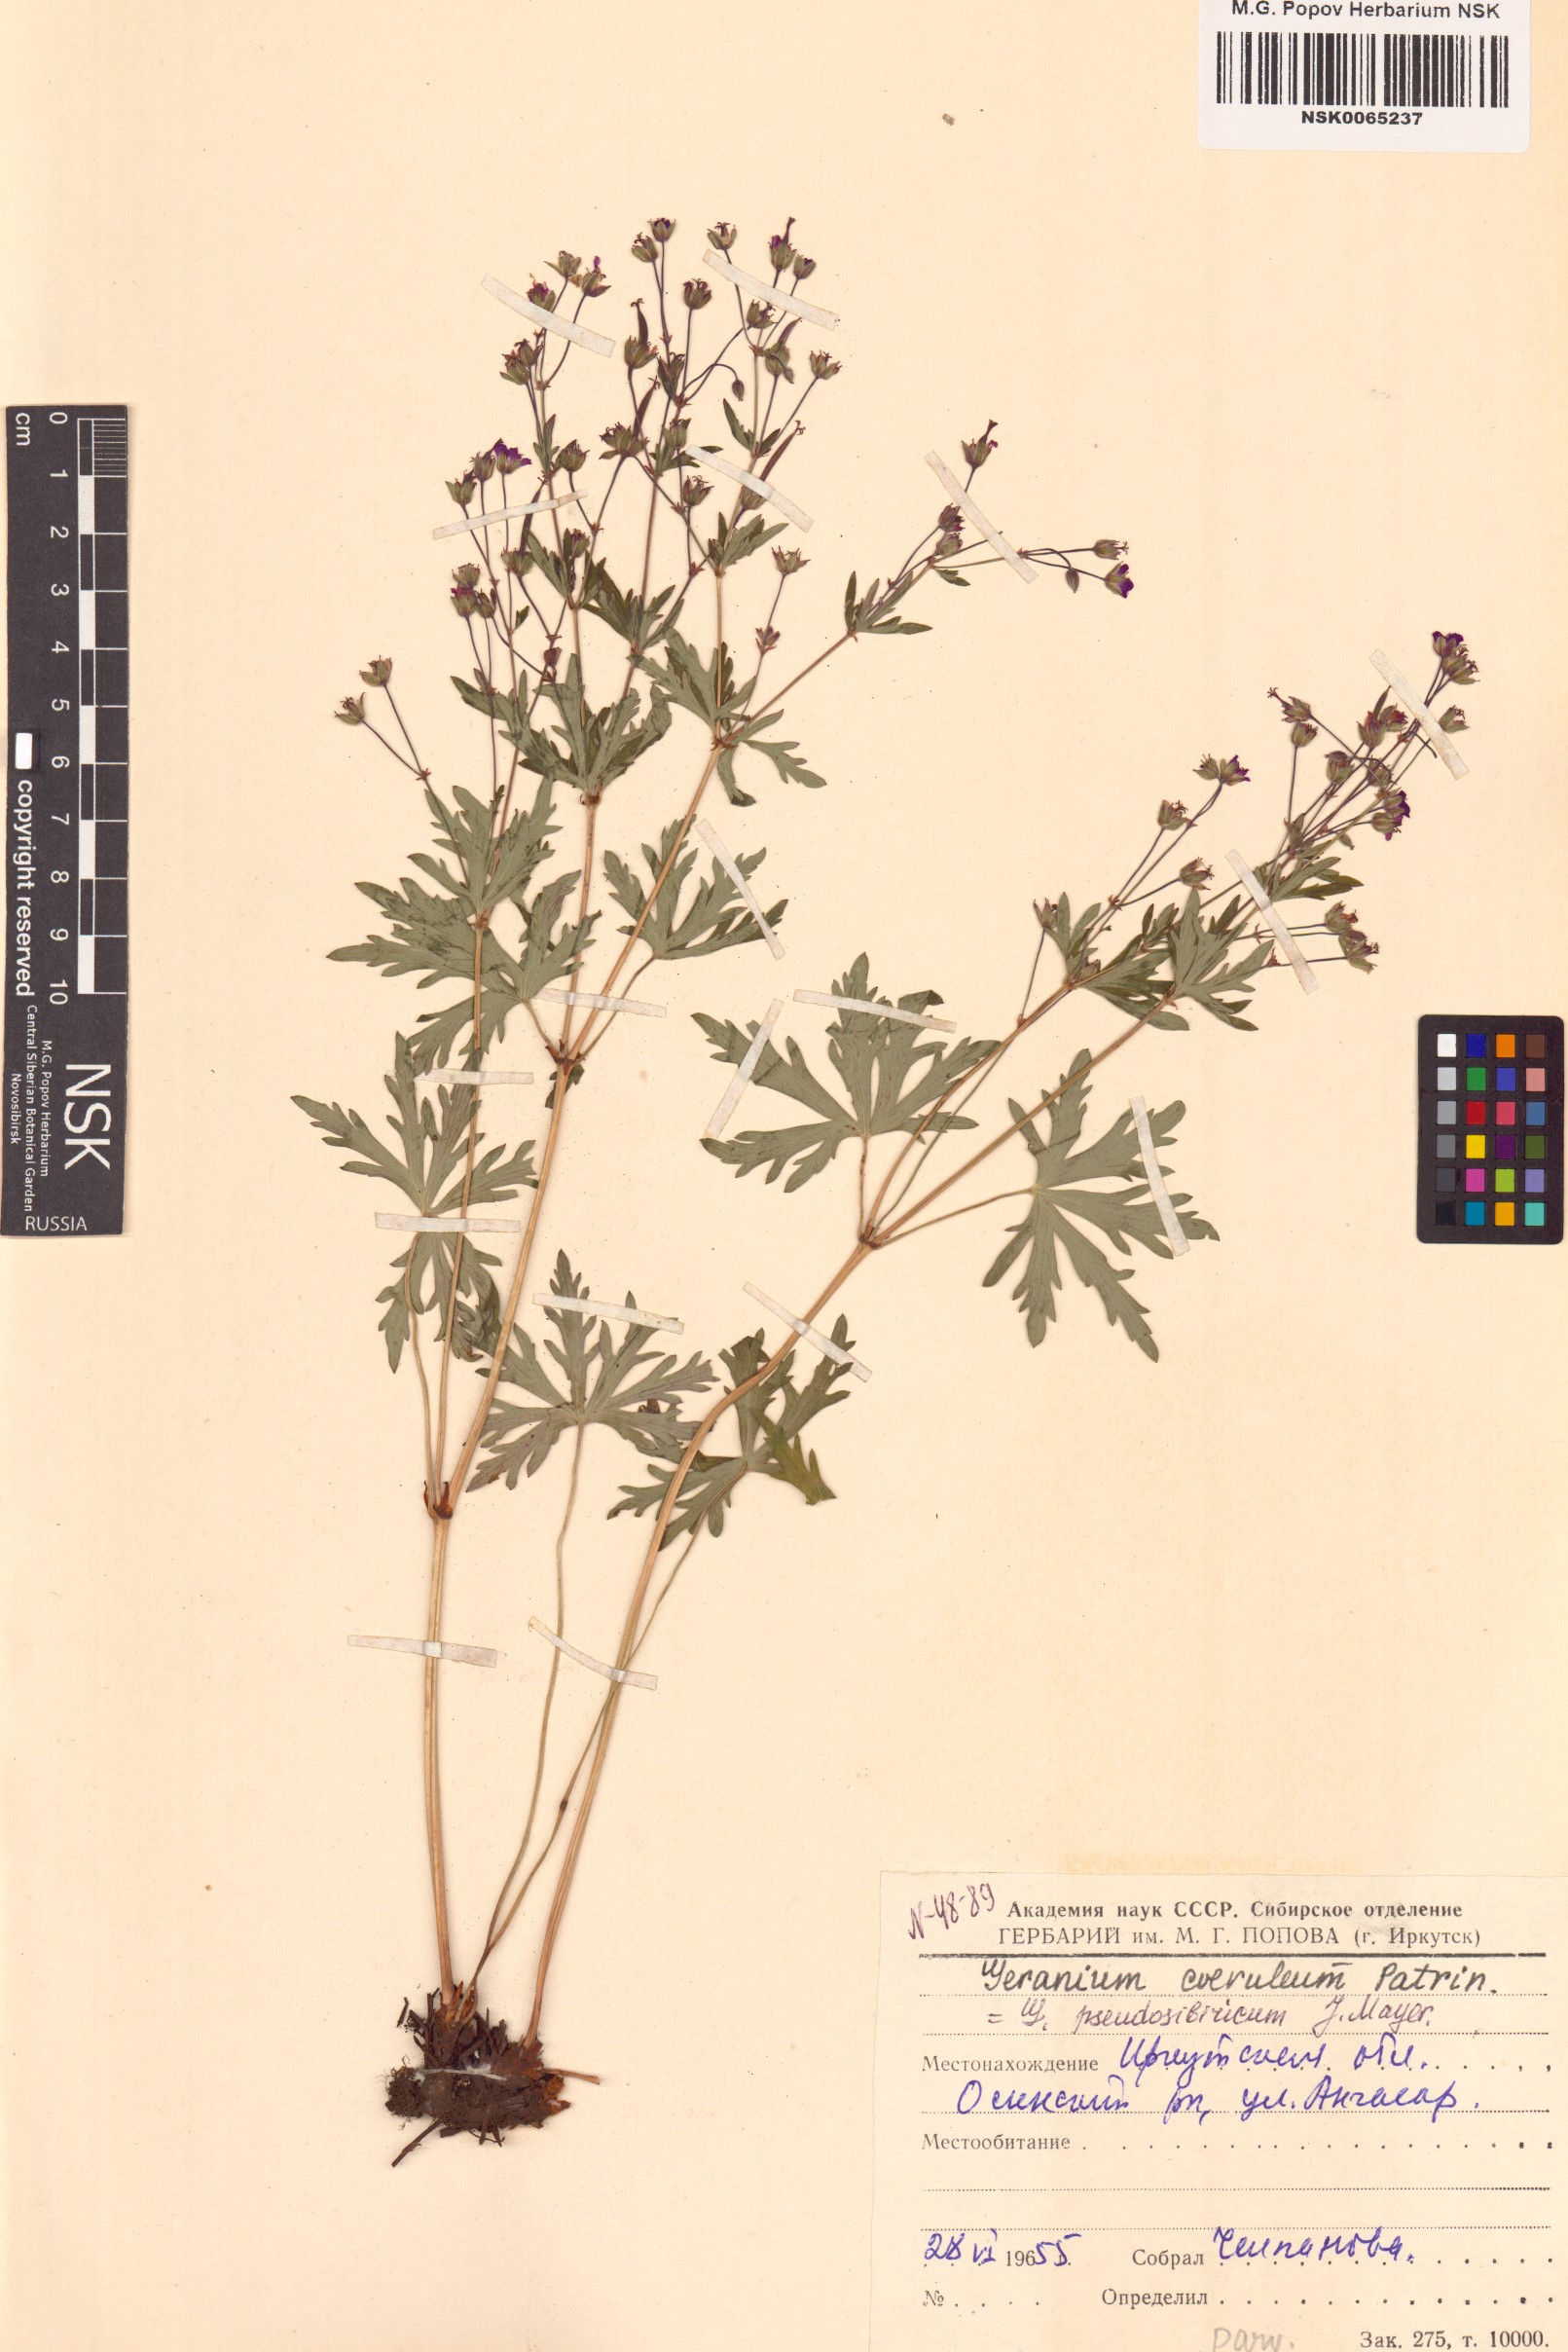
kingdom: Plantae
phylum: Tracheophyta
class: Magnoliopsida
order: Geraniales
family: Geraniaceae
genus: Geranium
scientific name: Geranium pseudosibiricum
